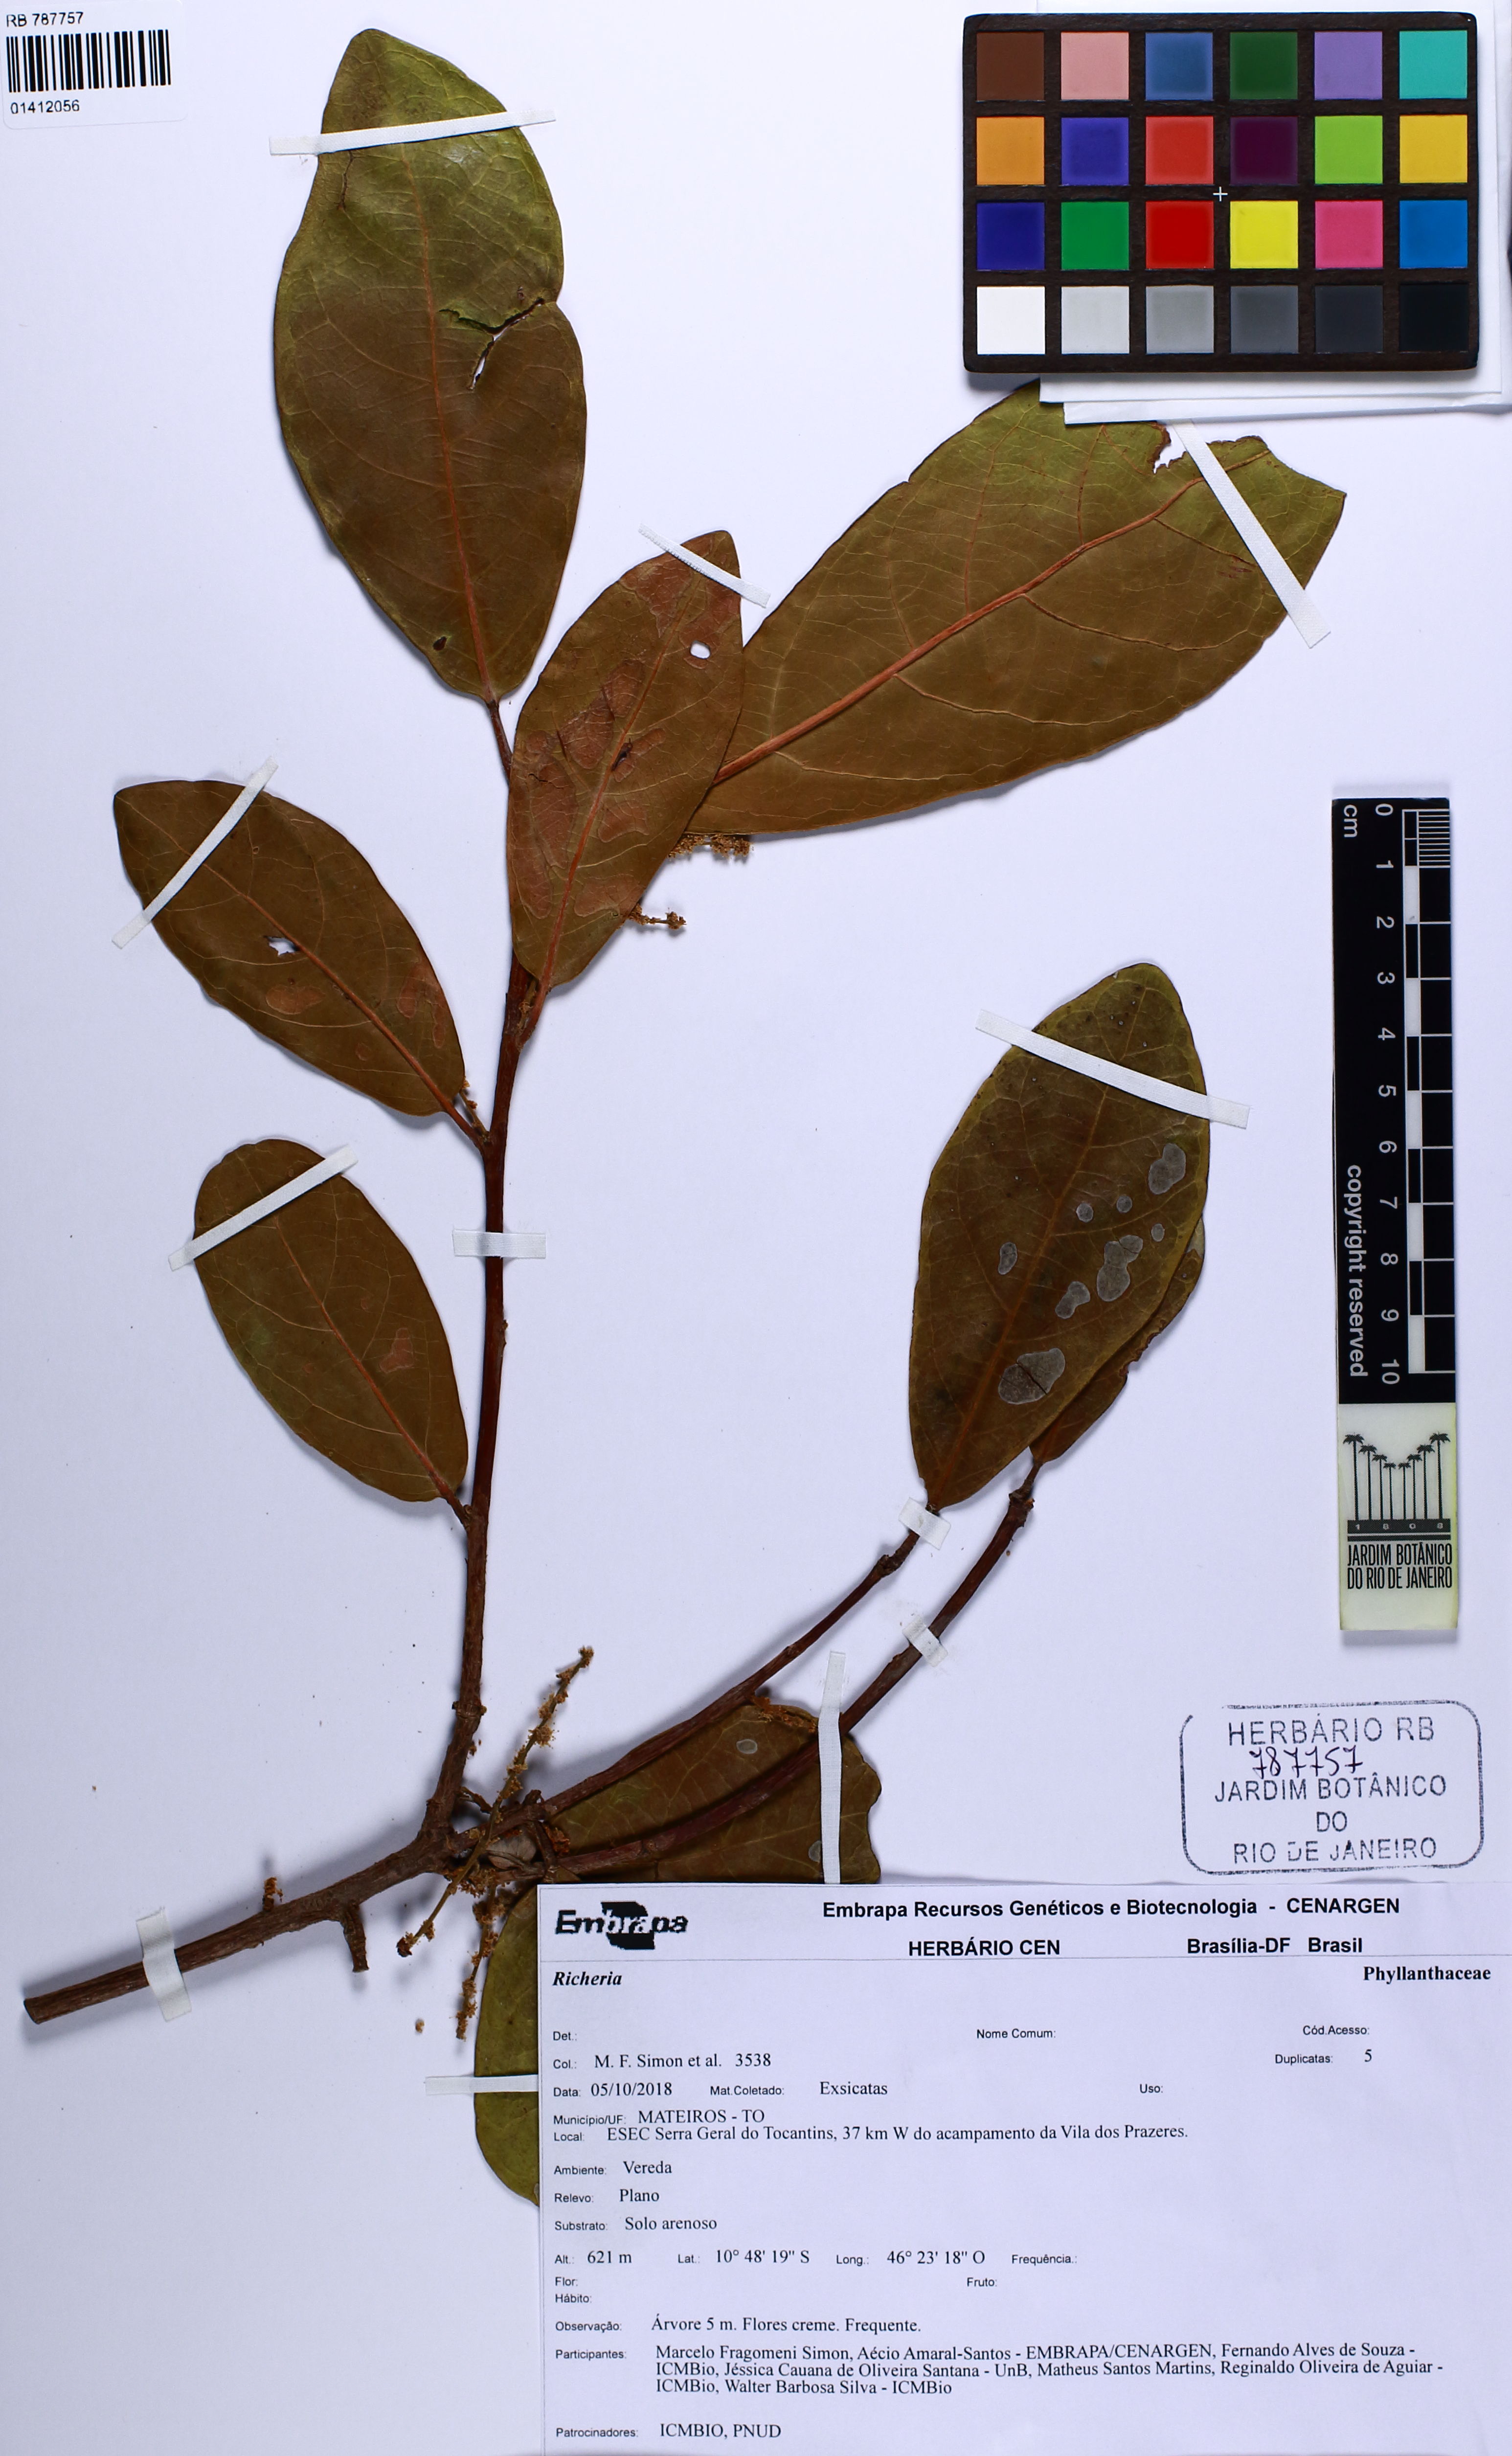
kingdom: Plantae
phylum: Tracheophyta
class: Magnoliopsida
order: Malpighiales
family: Phyllanthaceae
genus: Richeria
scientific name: Richeria
